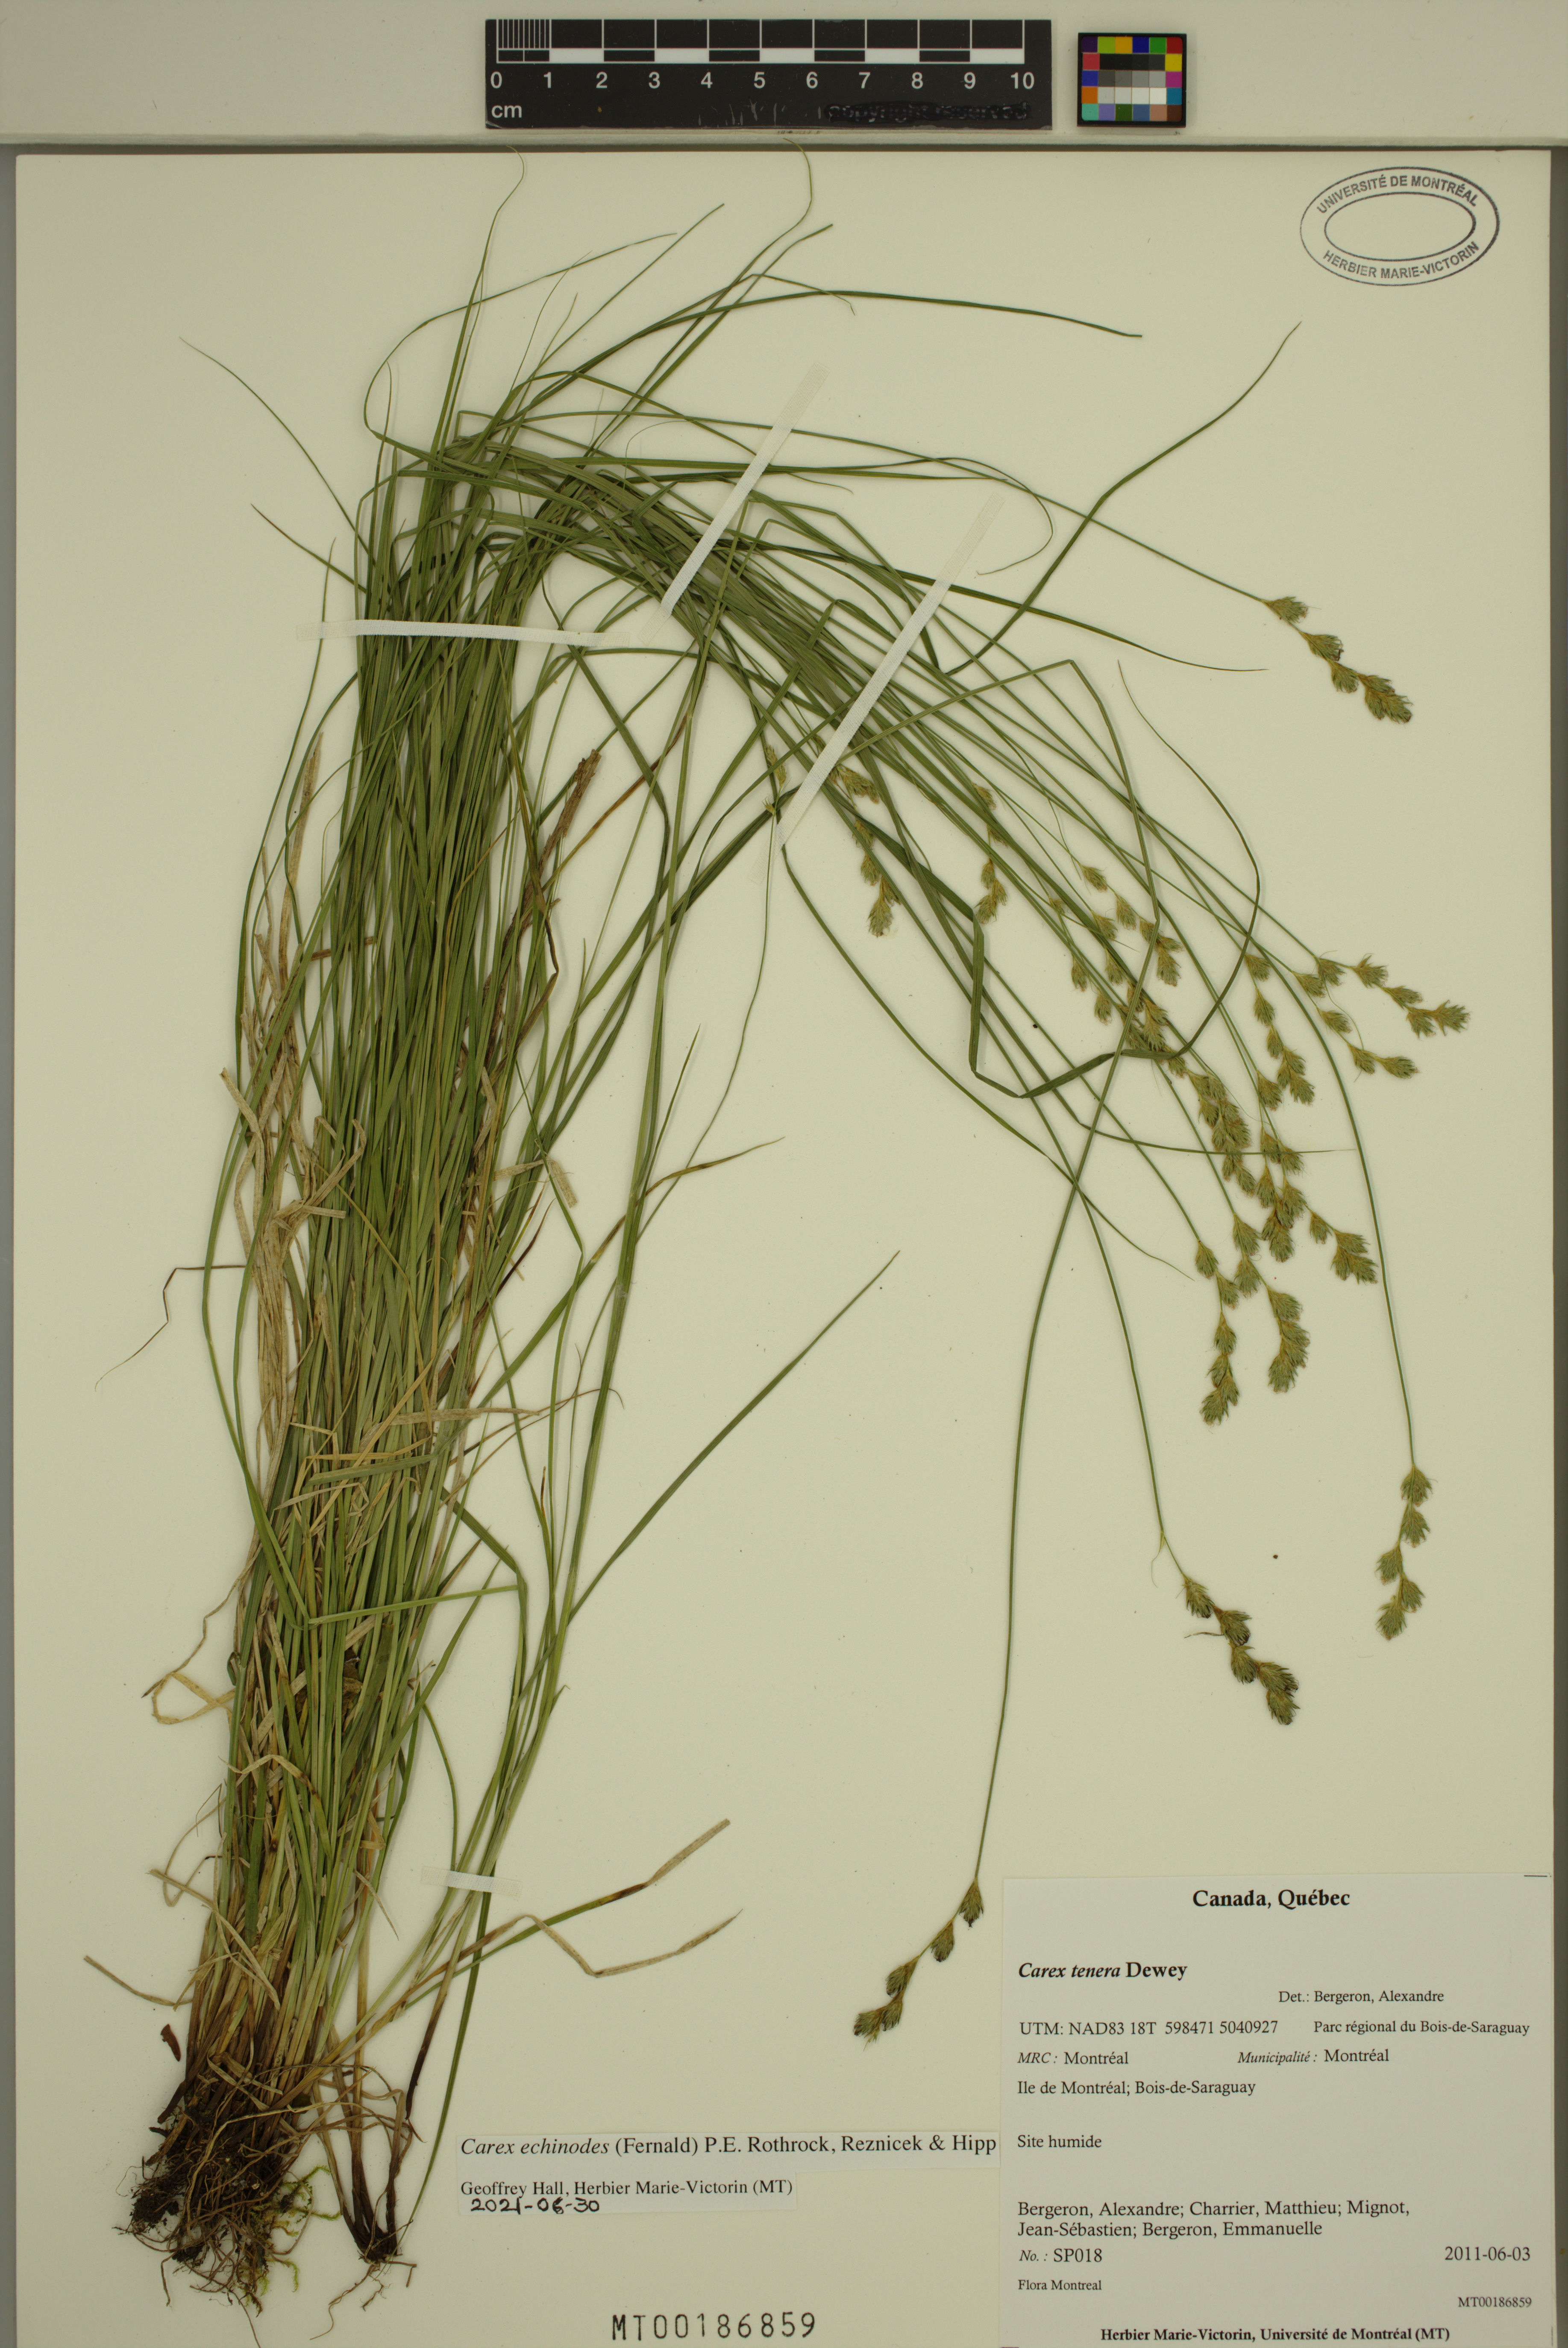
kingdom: Plantae
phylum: Tracheophyta
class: Liliopsida
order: Poales
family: Cyperaceae
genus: Carex
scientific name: Carex echinodes
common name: Marsh straw sedge
